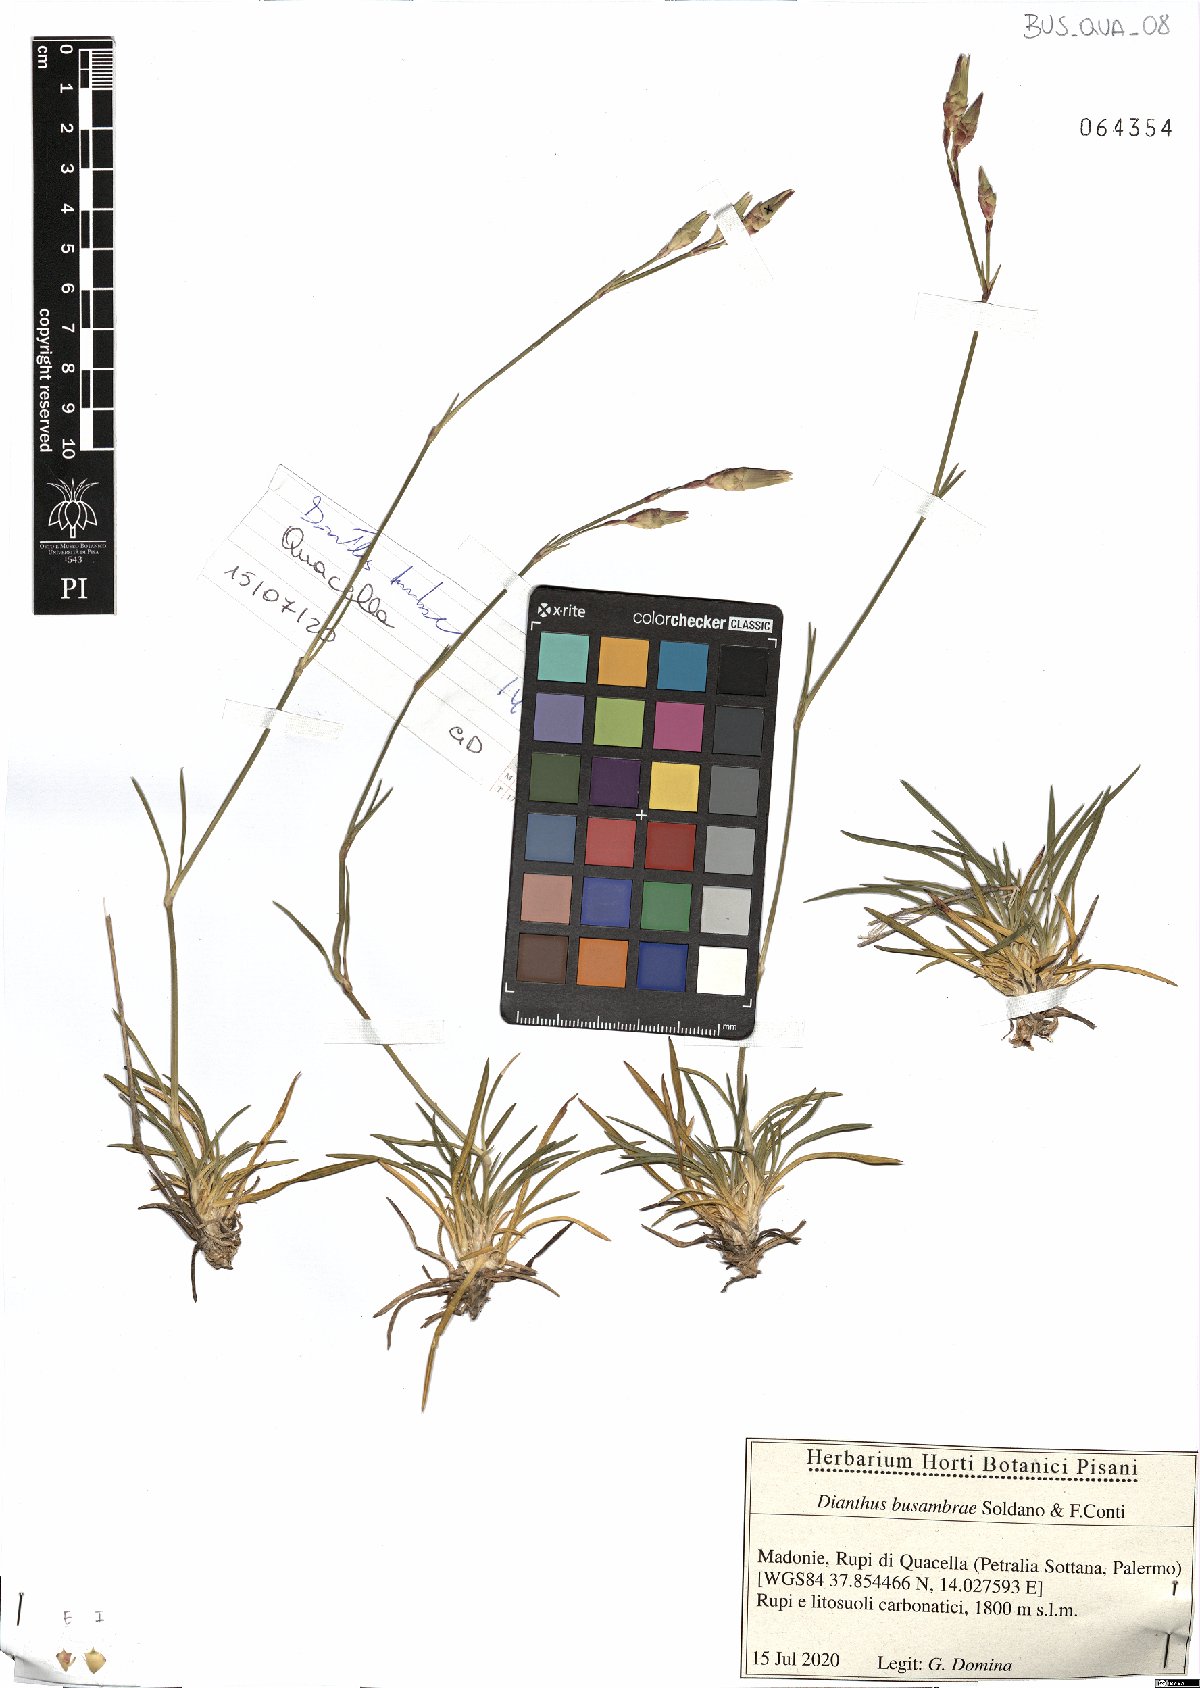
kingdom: Plantae
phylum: Tracheophyta
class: Magnoliopsida
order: Caryophyllales
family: Caryophyllaceae
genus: Dianthus
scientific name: Dianthus busambrae
